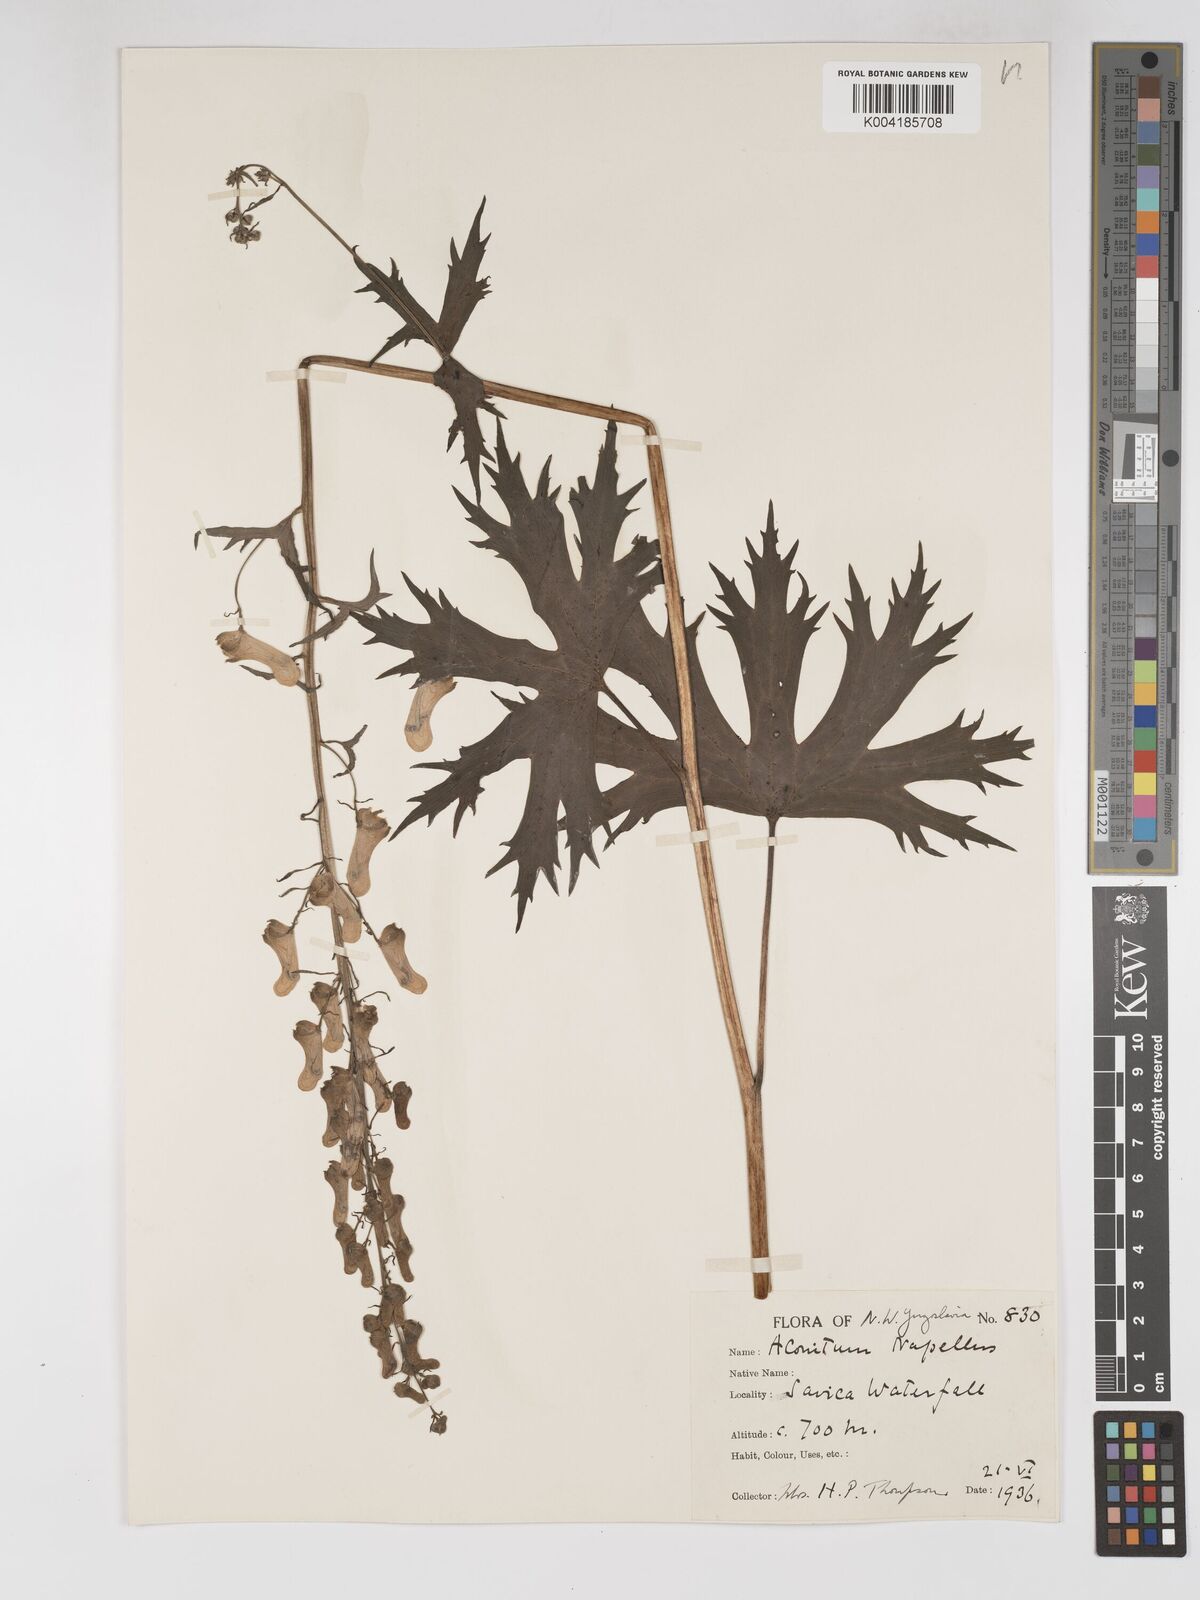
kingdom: Plantae
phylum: Tracheophyta
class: Magnoliopsida
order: Ranunculales
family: Ranunculaceae
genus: Aconitum
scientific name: Aconitum lycoctonum
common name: Wolf's-bane
